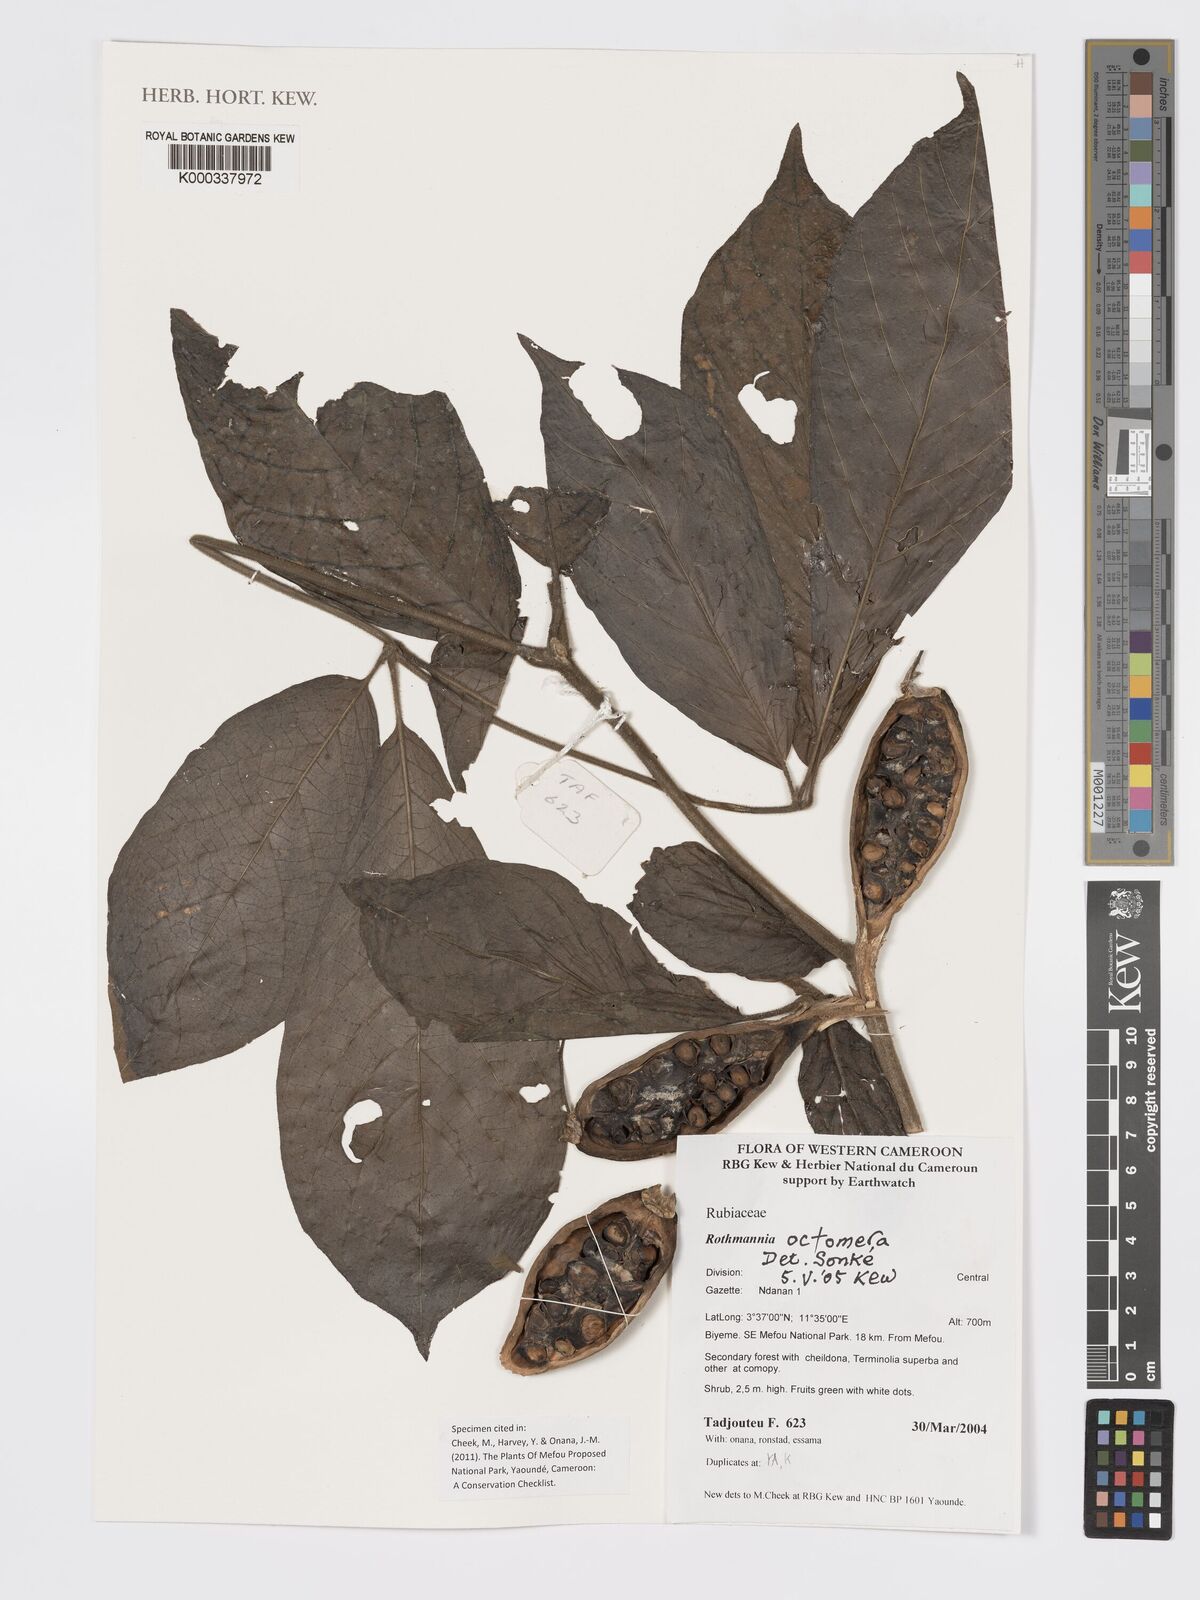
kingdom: Plantae
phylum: Tracheophyta
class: Magnoliopsida
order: Gentianales
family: Rubiaceae
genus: Rothmannia
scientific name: Rothmannia octomera
